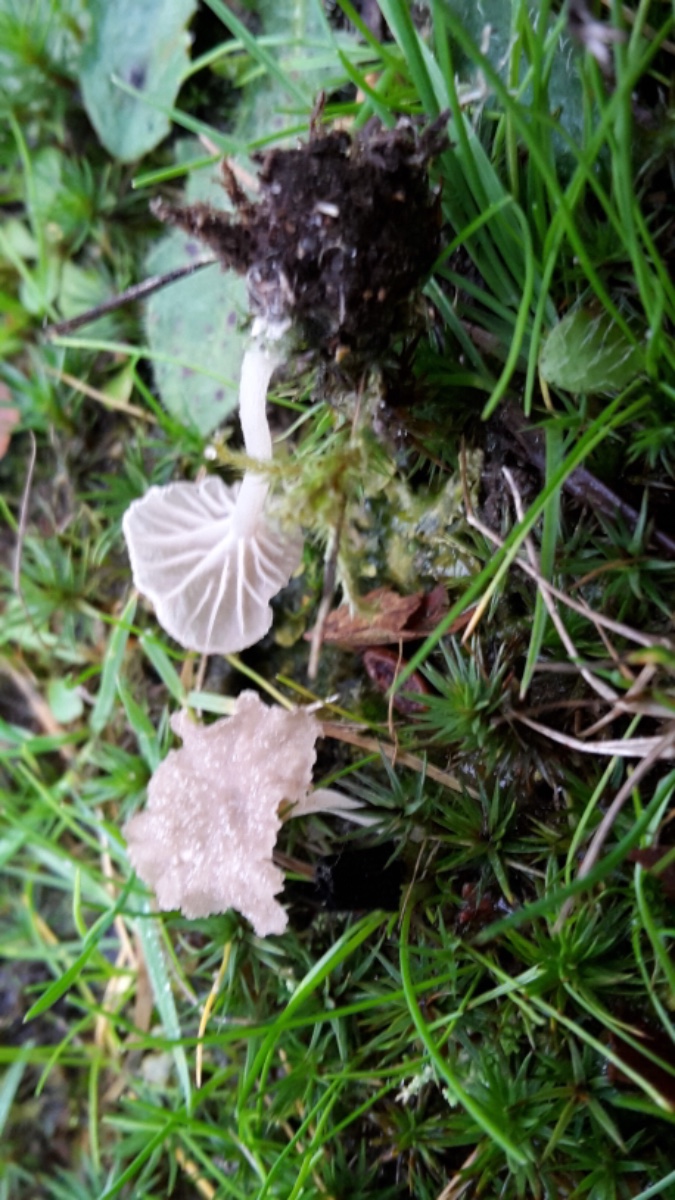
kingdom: Fungi
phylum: Basidiomycota
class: Agaricomycetes
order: Agaricales
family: Hygrophoraceae
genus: Arrhenia
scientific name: Arrhenia peltigerina
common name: skjoldlav-fontænehat
